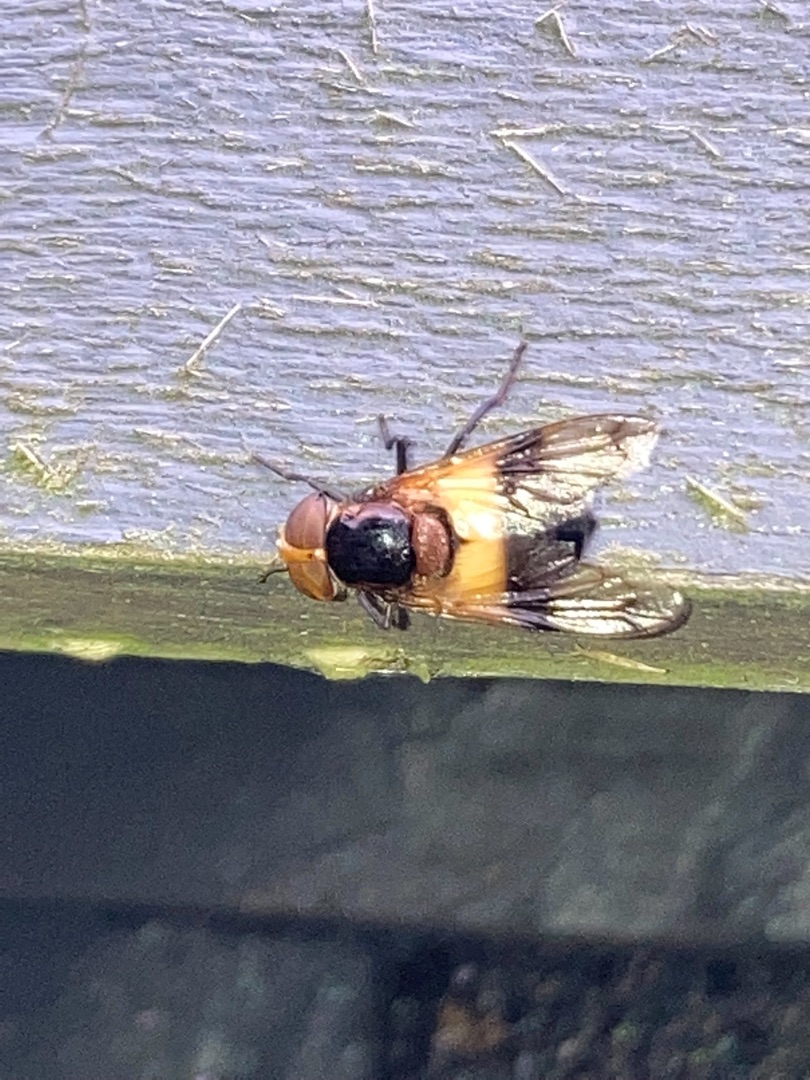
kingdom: Animalia
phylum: Arthropoda
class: Insecta
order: Diptera
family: Syrphidae
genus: Volucella
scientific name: Volucella pellucens
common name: Hvidbåndet humlesvirreflue
